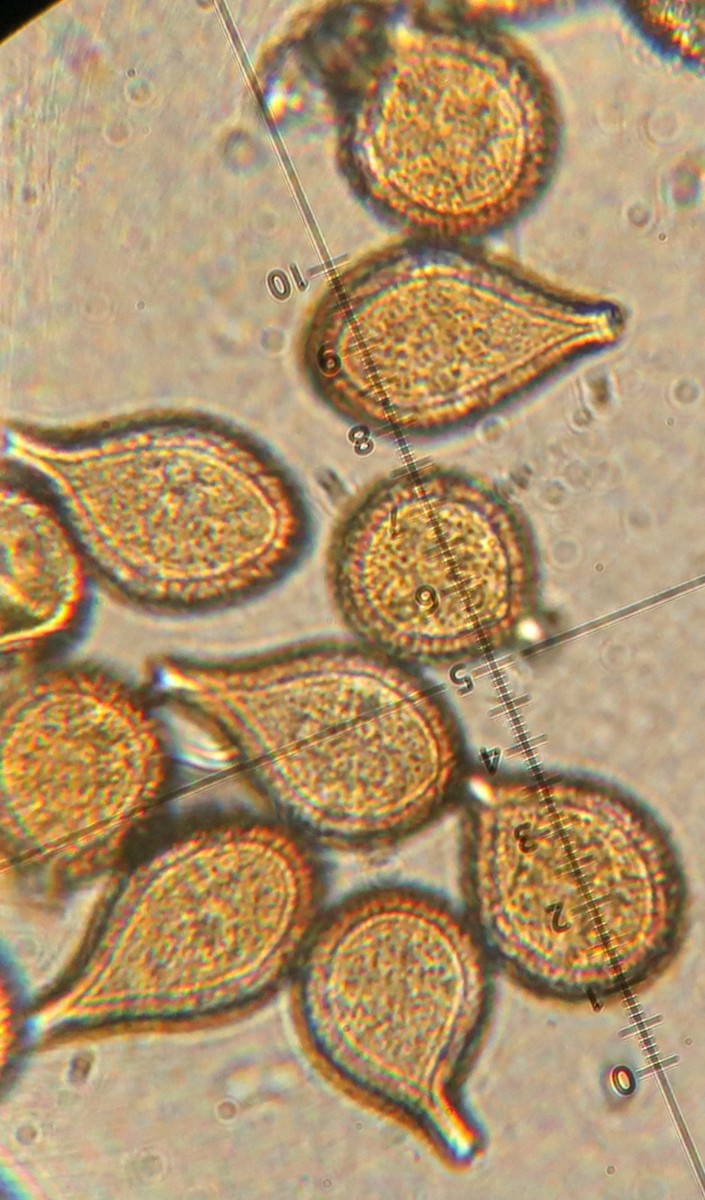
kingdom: Fungi
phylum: Basidiomycota
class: Pucciniomycetes
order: Pucciniales
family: Pucciniaceae
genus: Cumminsiella
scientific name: Cumminsiella mirabilissima
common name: mahonierust
